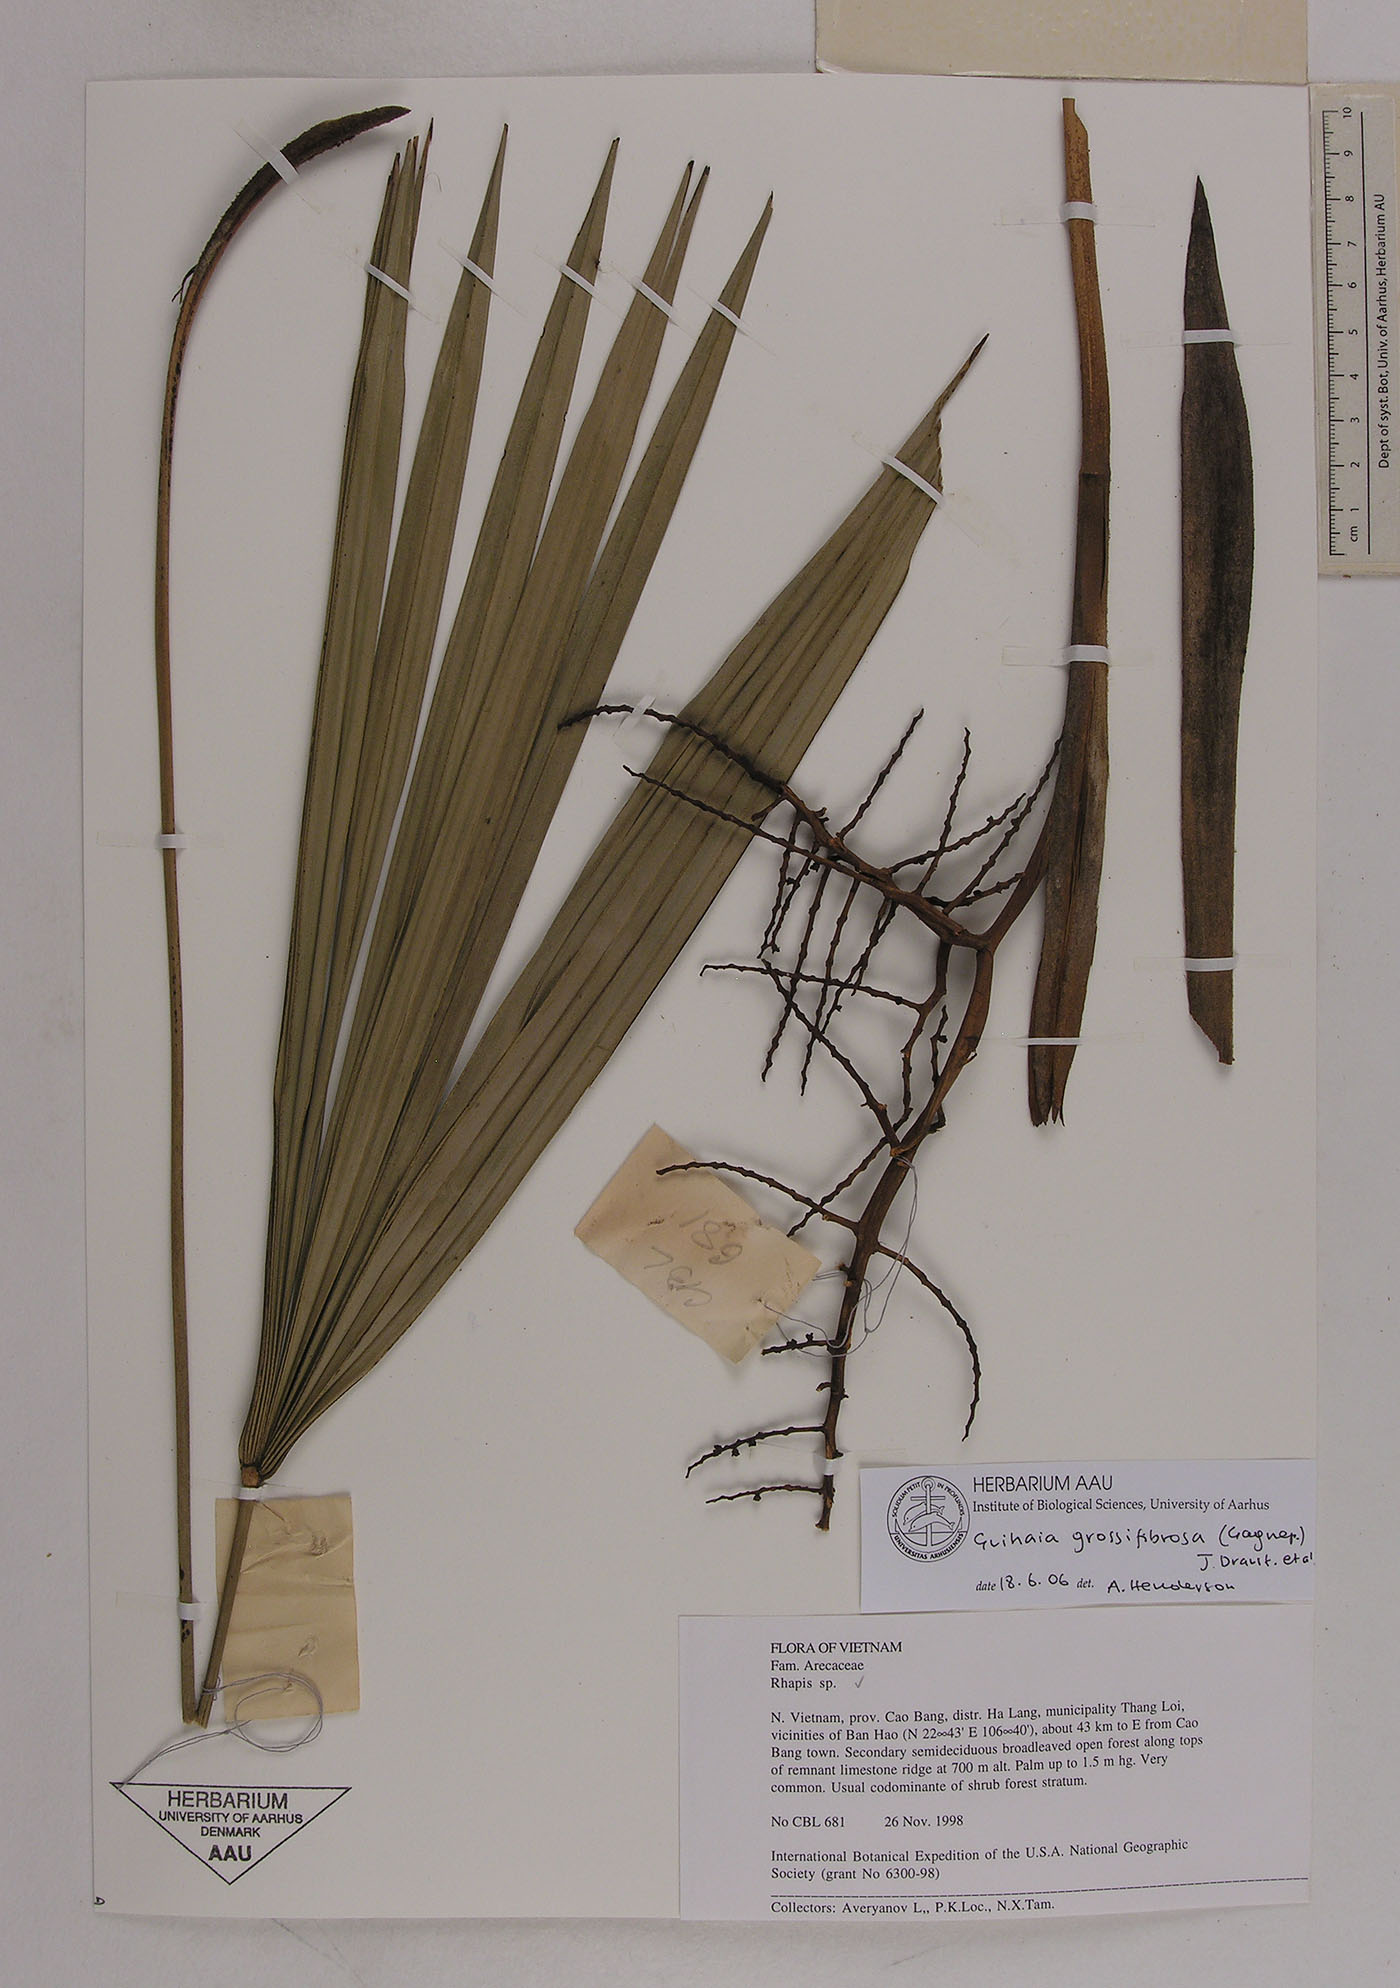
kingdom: Plantae
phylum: Tracheophyta
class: Liliopsida
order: Arecales
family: Arecaceae
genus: Guihaia
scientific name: Guihaia grossifibrosa
